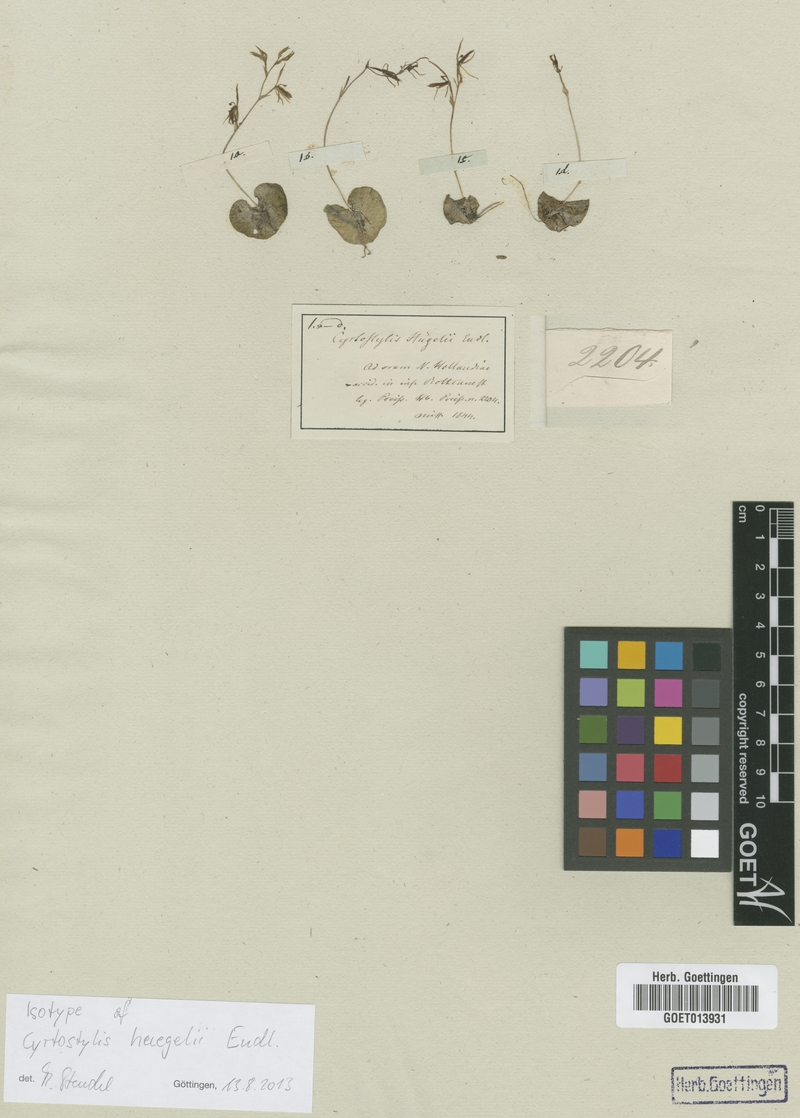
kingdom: Plantae
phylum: Tracheophyta
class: Liliopsida
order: Asparagales
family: Orchidaceae
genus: Cyrtostylis
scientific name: Cyrtostylis huegelii
